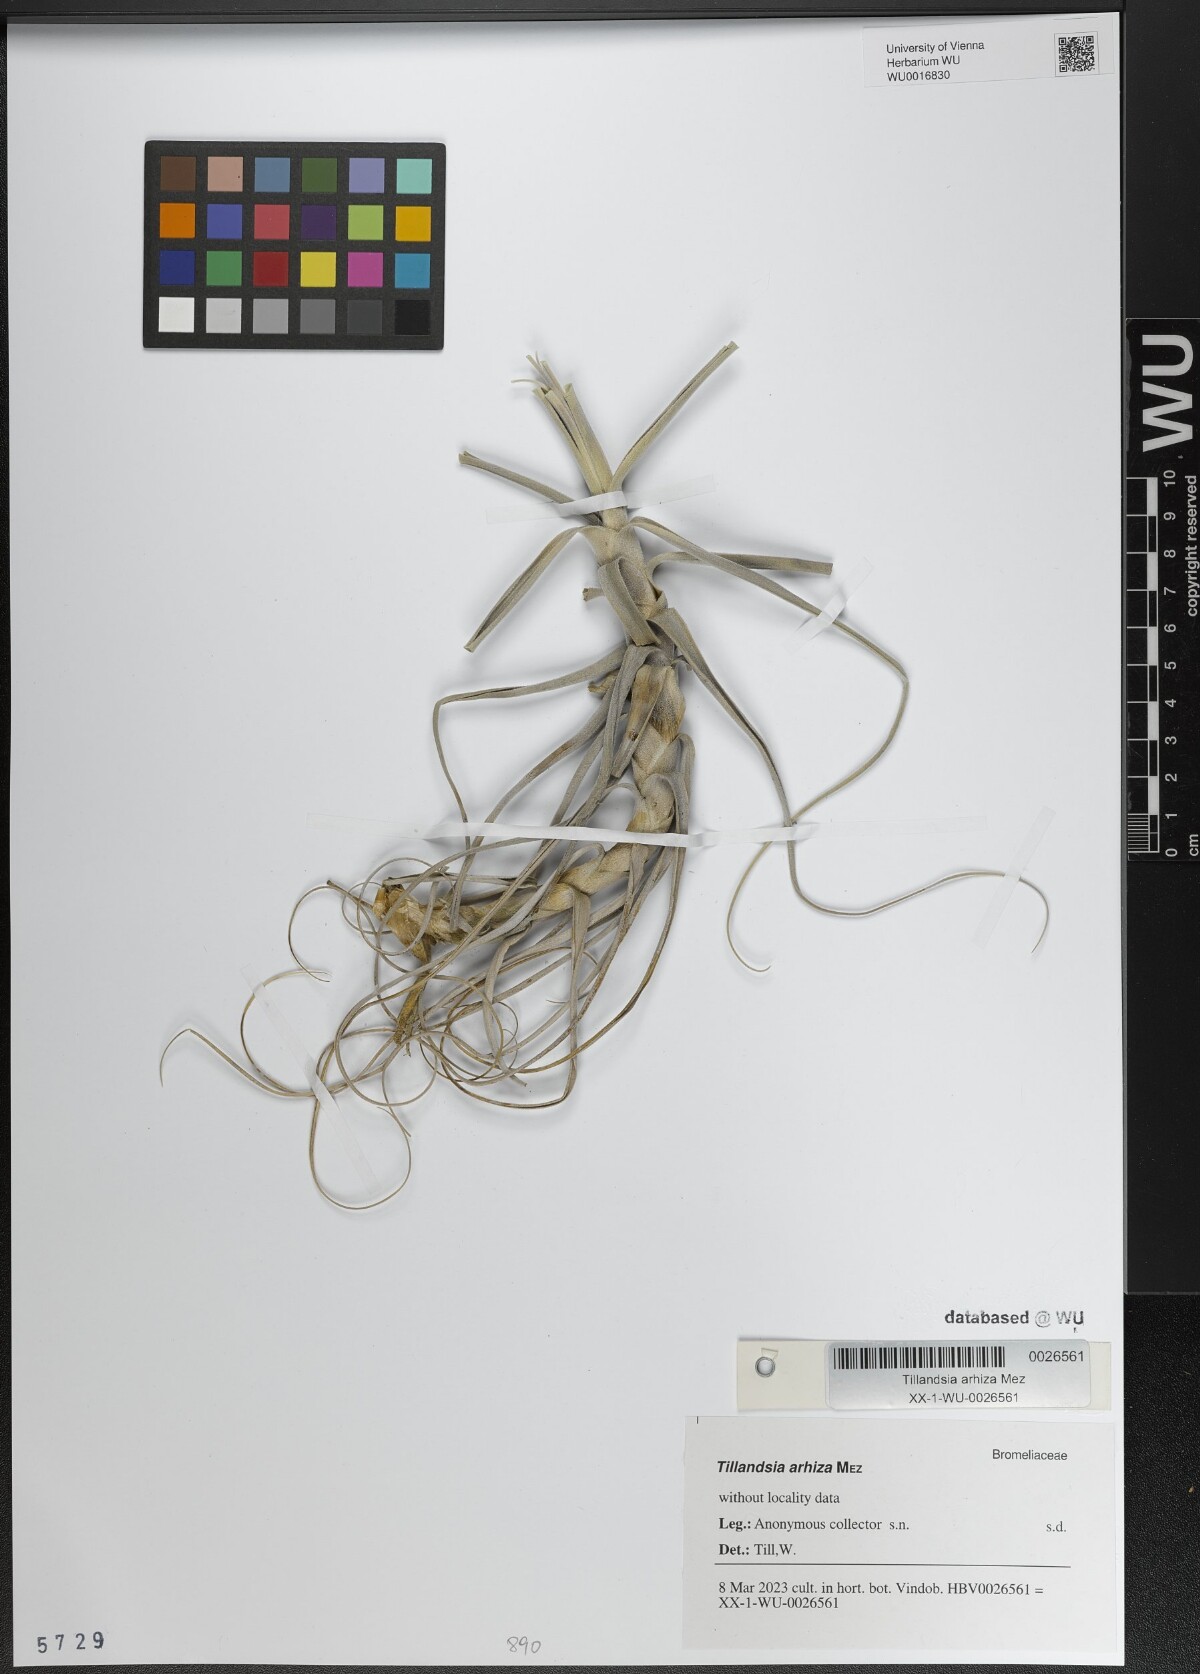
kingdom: Plantae
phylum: Tracheophyta
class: Liliopsida
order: Poales
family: Bromeliaceae
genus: Tillandsia
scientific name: Tillandsia arhiza
